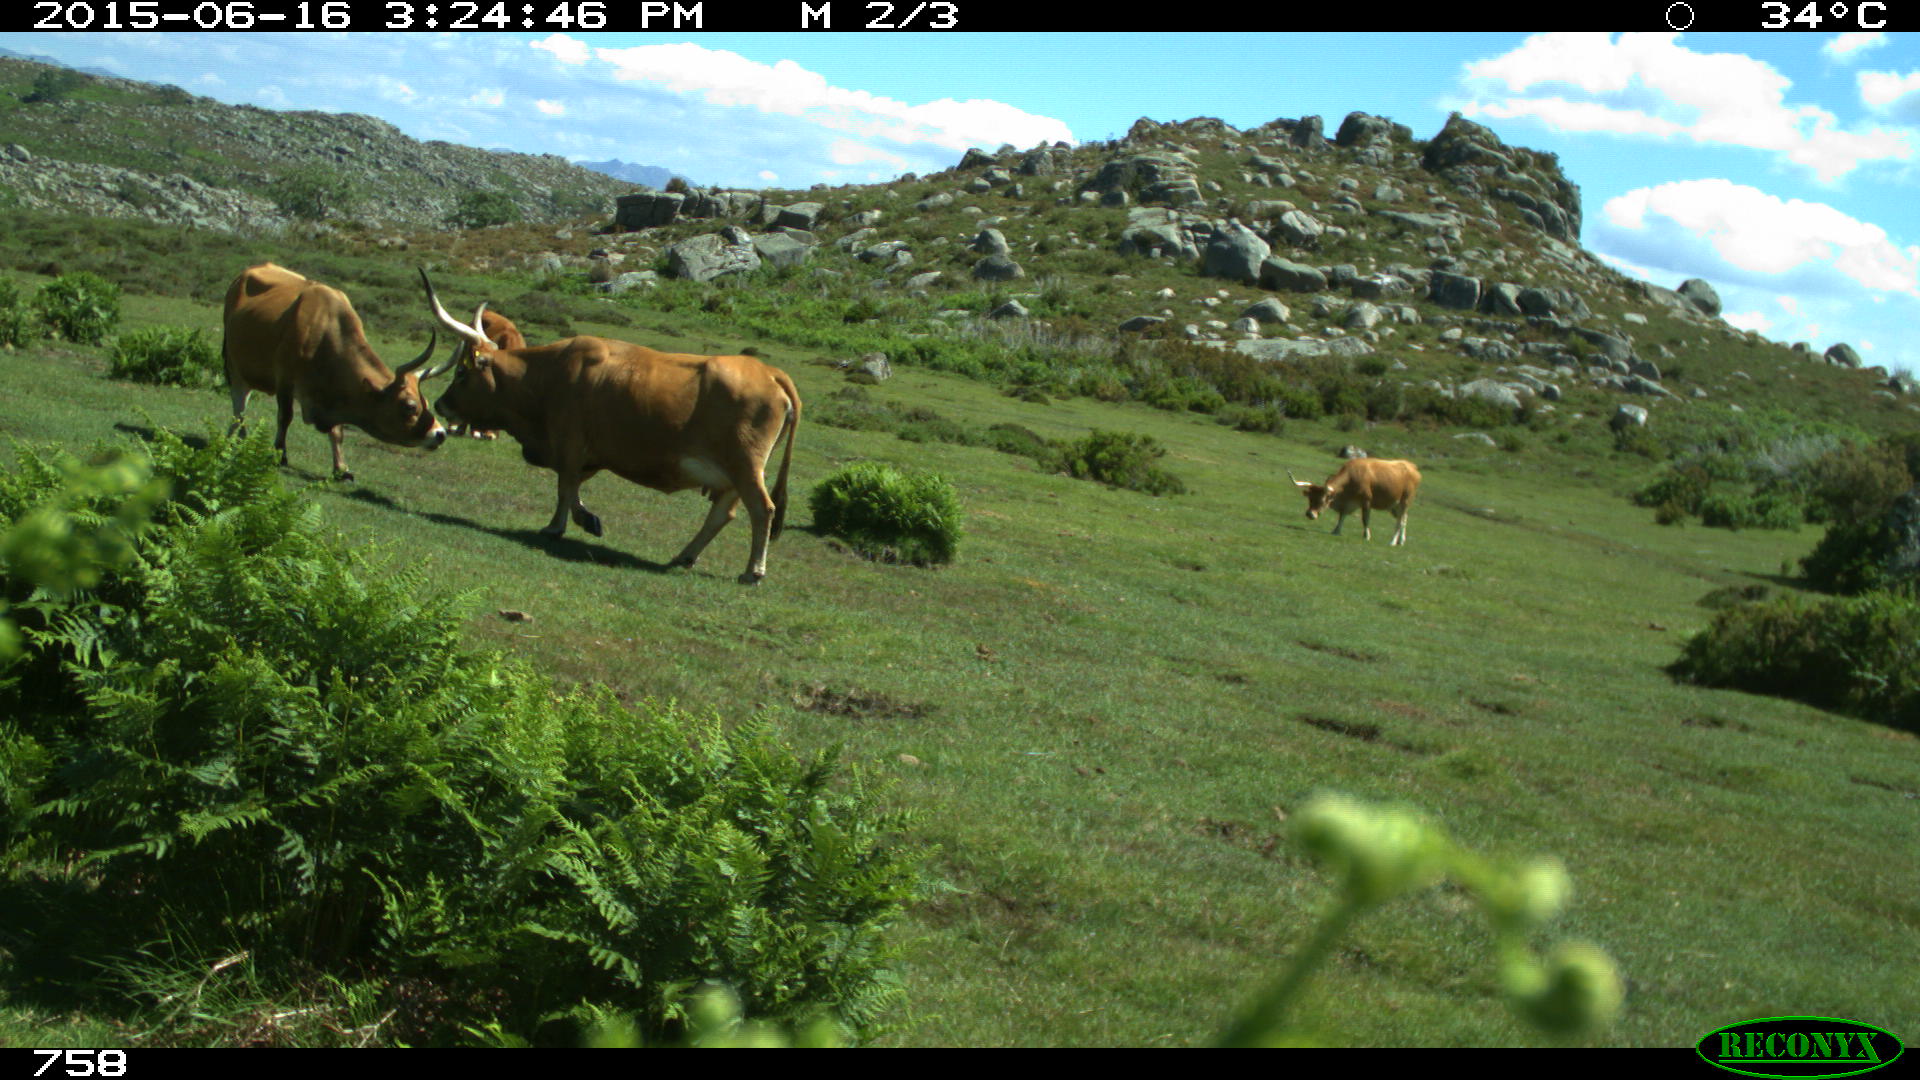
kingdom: Animalia
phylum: Chordata
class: Mammalia
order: Artiodactyla
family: Bovidae
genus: Bos
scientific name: Bos taurus
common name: Domesticated cattle
